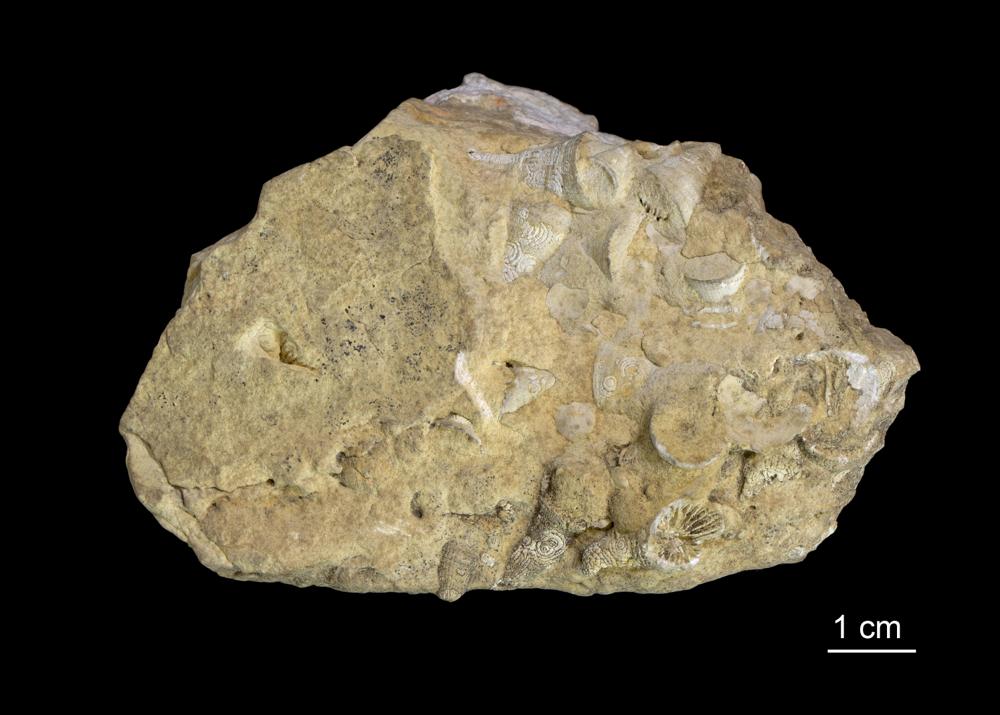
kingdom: Animalia
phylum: Cnidaria
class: Anthozoa
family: Cyathophyllidae
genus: Cyathophyllum
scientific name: Cyathophyllum
